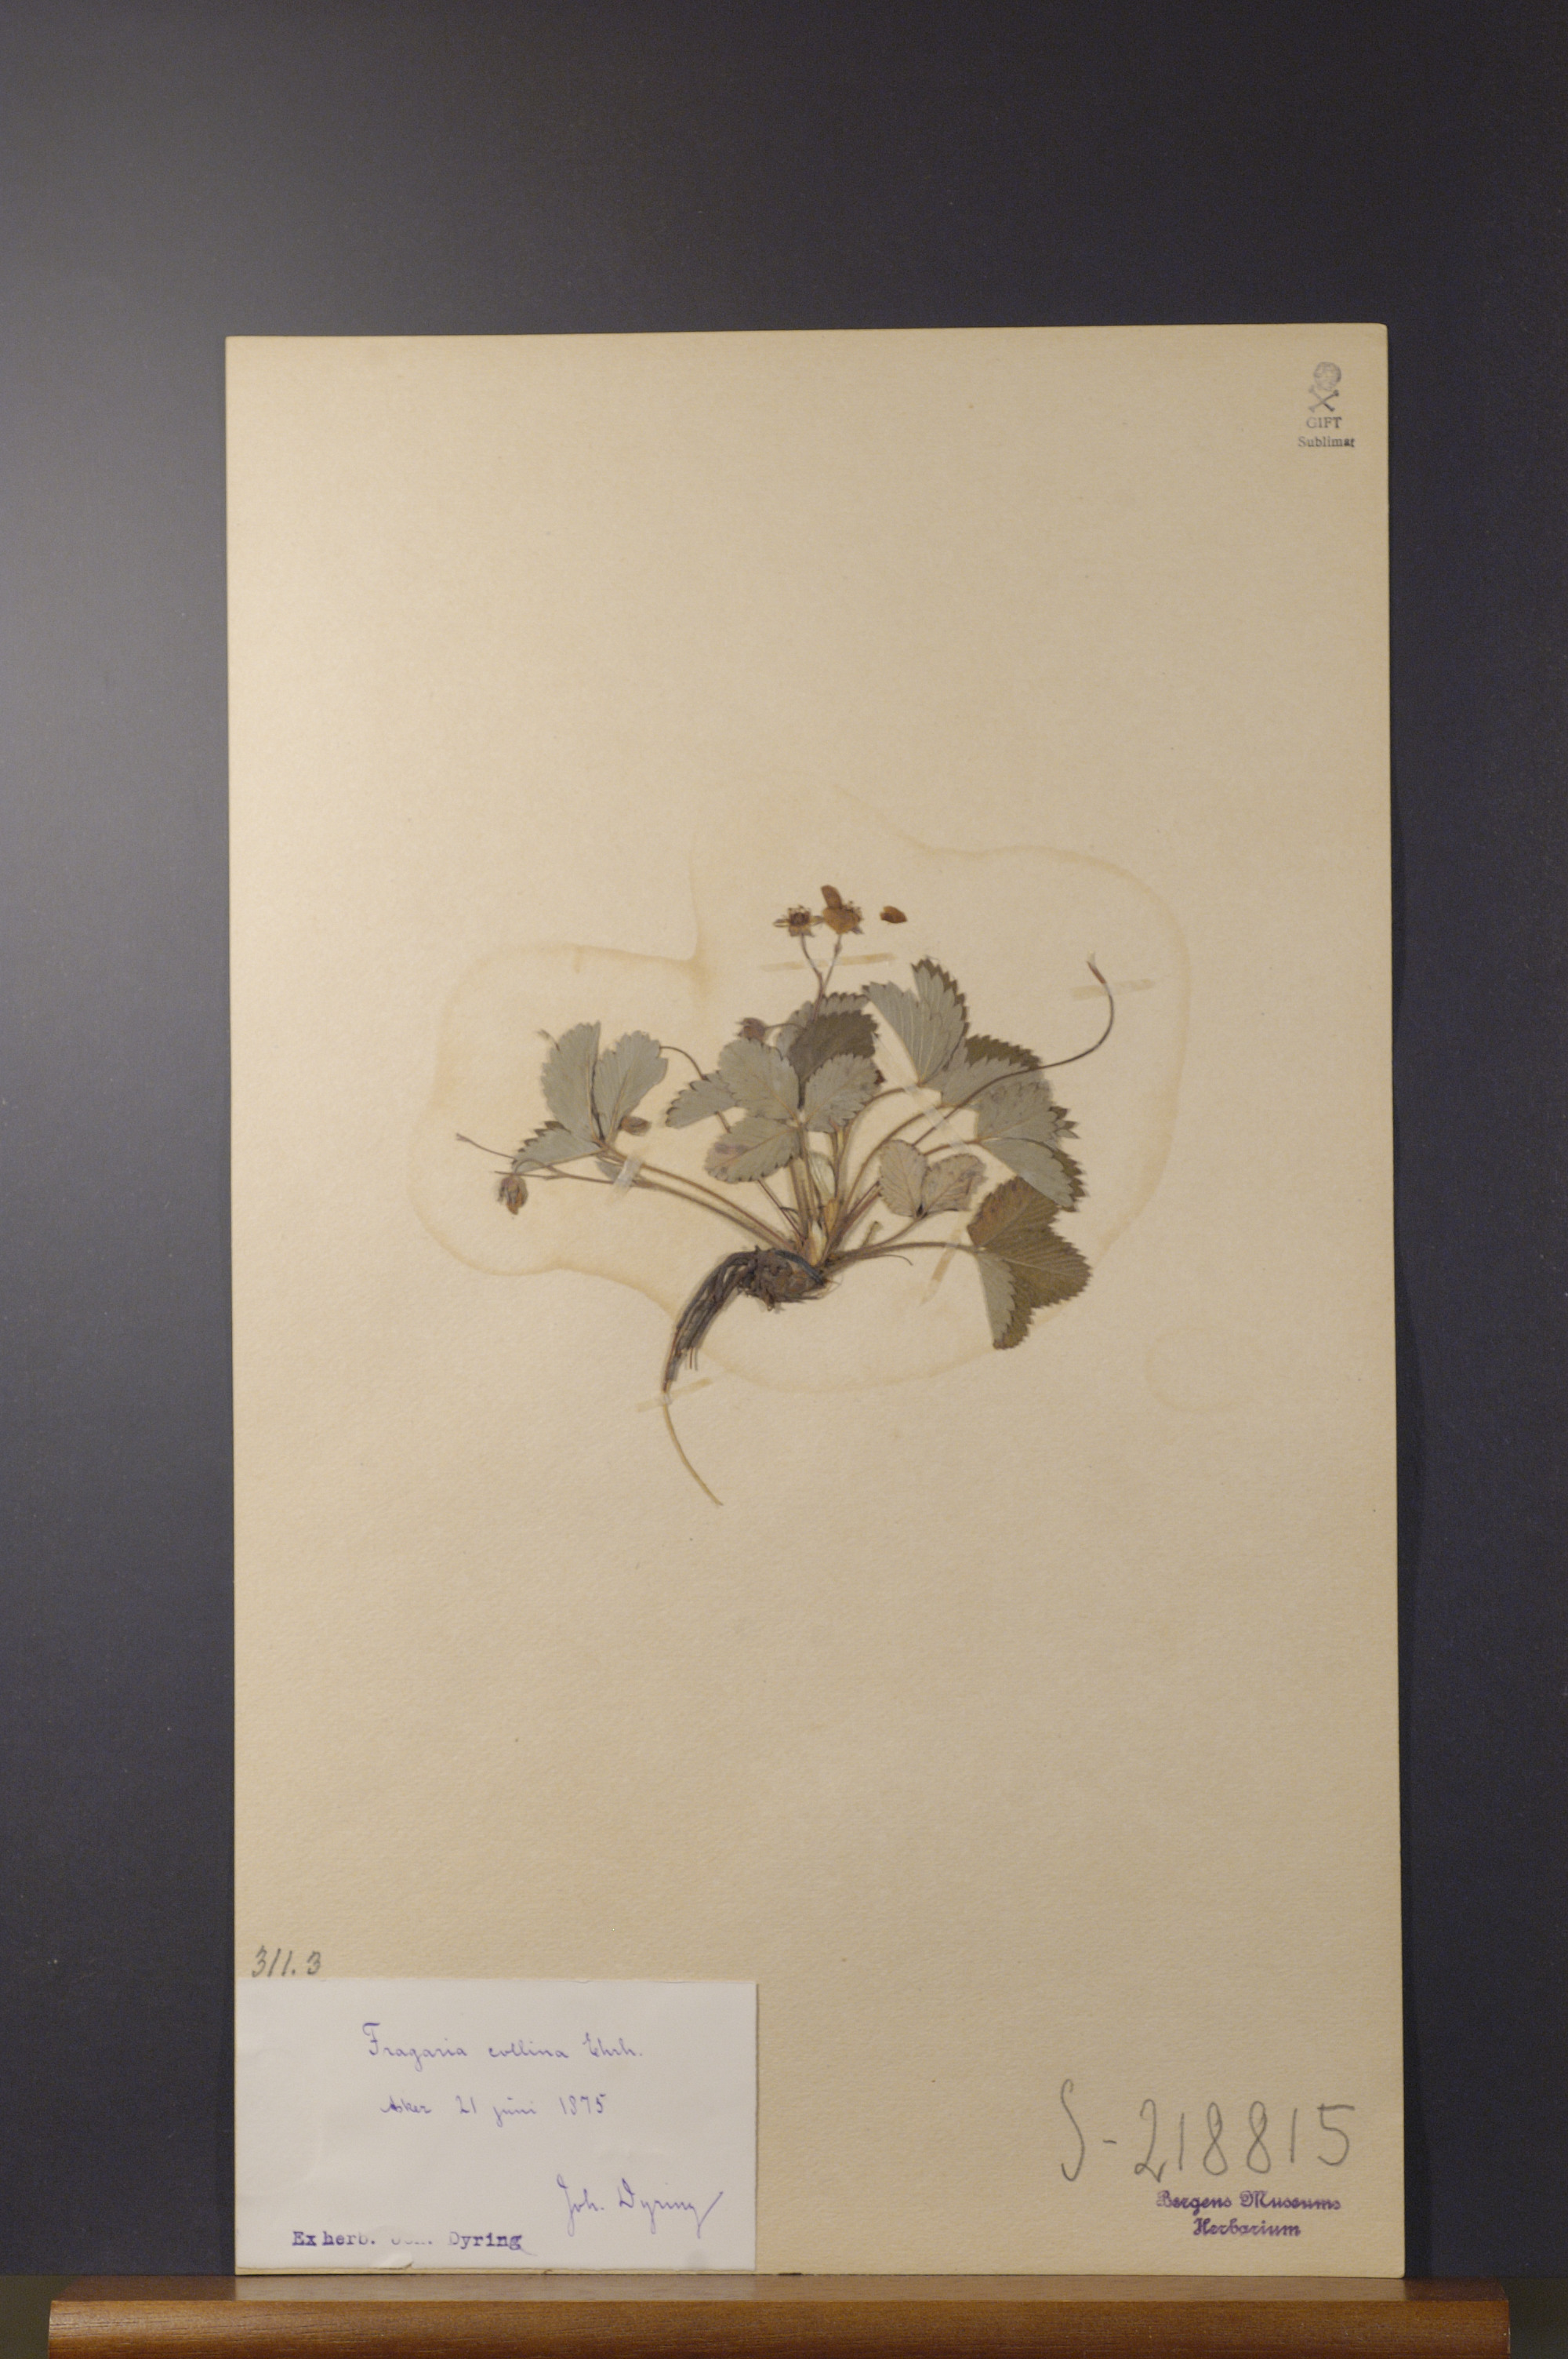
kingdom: Plantae
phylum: Tracheophyta
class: Magnoliopsida
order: Rosales
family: Rosaceae
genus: Fragaria
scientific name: Fragaria viridis
